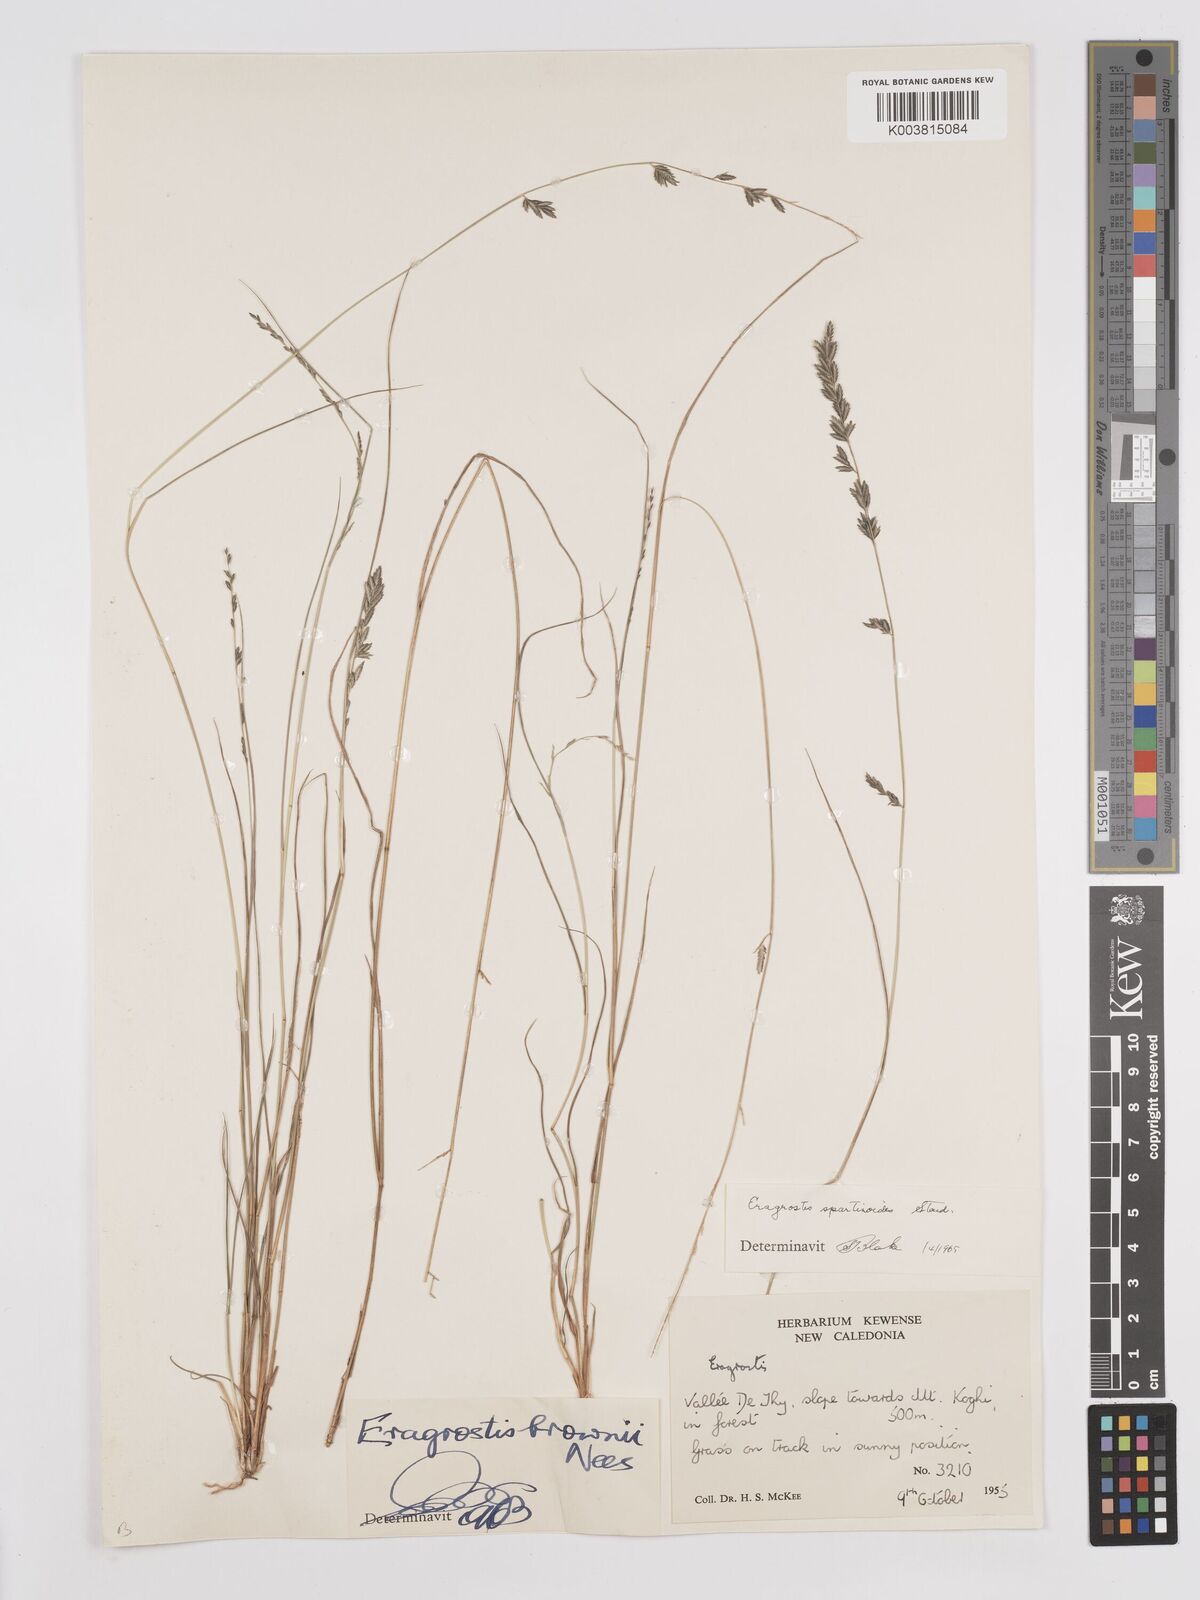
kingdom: Plantae
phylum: Tracheophyta
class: Liliopsida
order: Poales
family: Poaceae
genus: Eragrostis
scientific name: Eragrostis brownii
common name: Lovegrass
